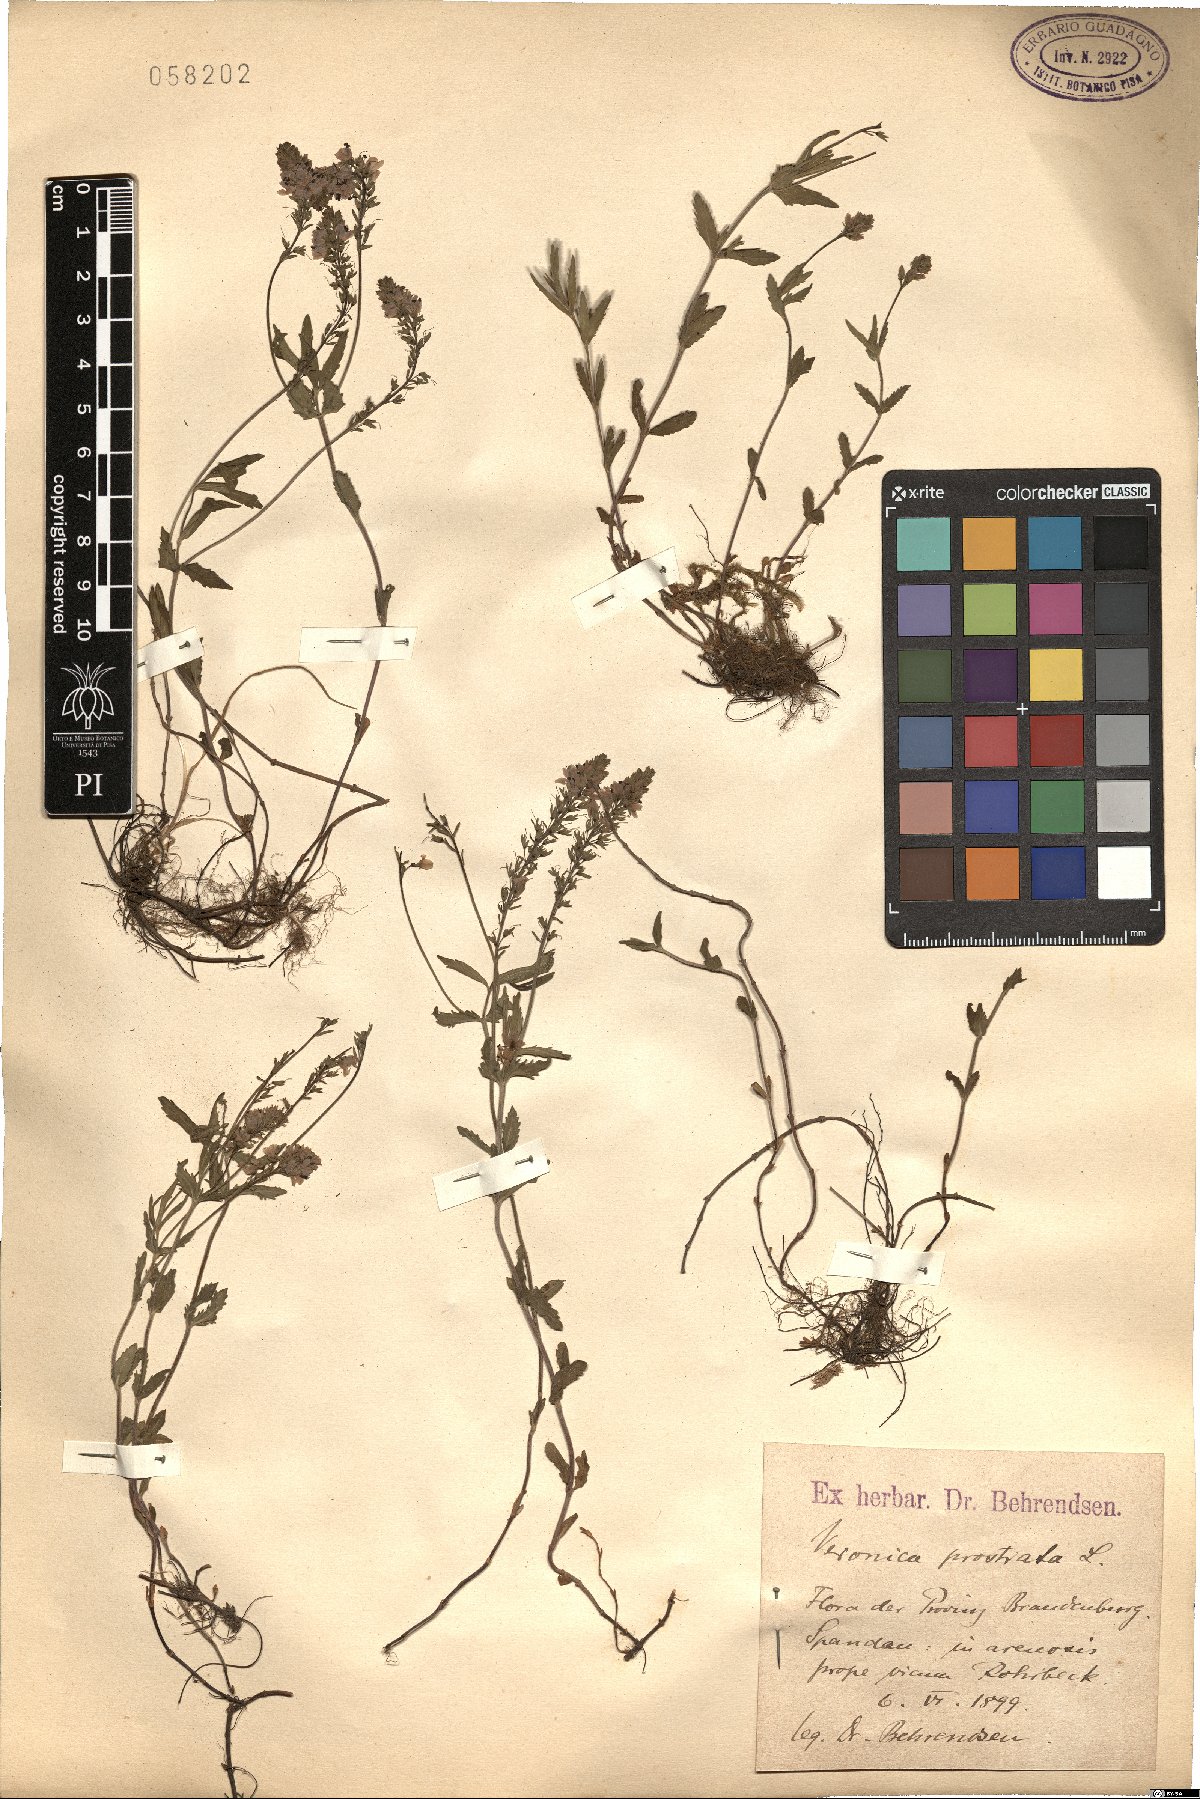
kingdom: Plantae
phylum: Tracheophyta
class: Magnoliopsida
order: Lamiales
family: Plantaginaceae
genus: Veronica
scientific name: Veronica prostrata
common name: Prostrate speedwell
